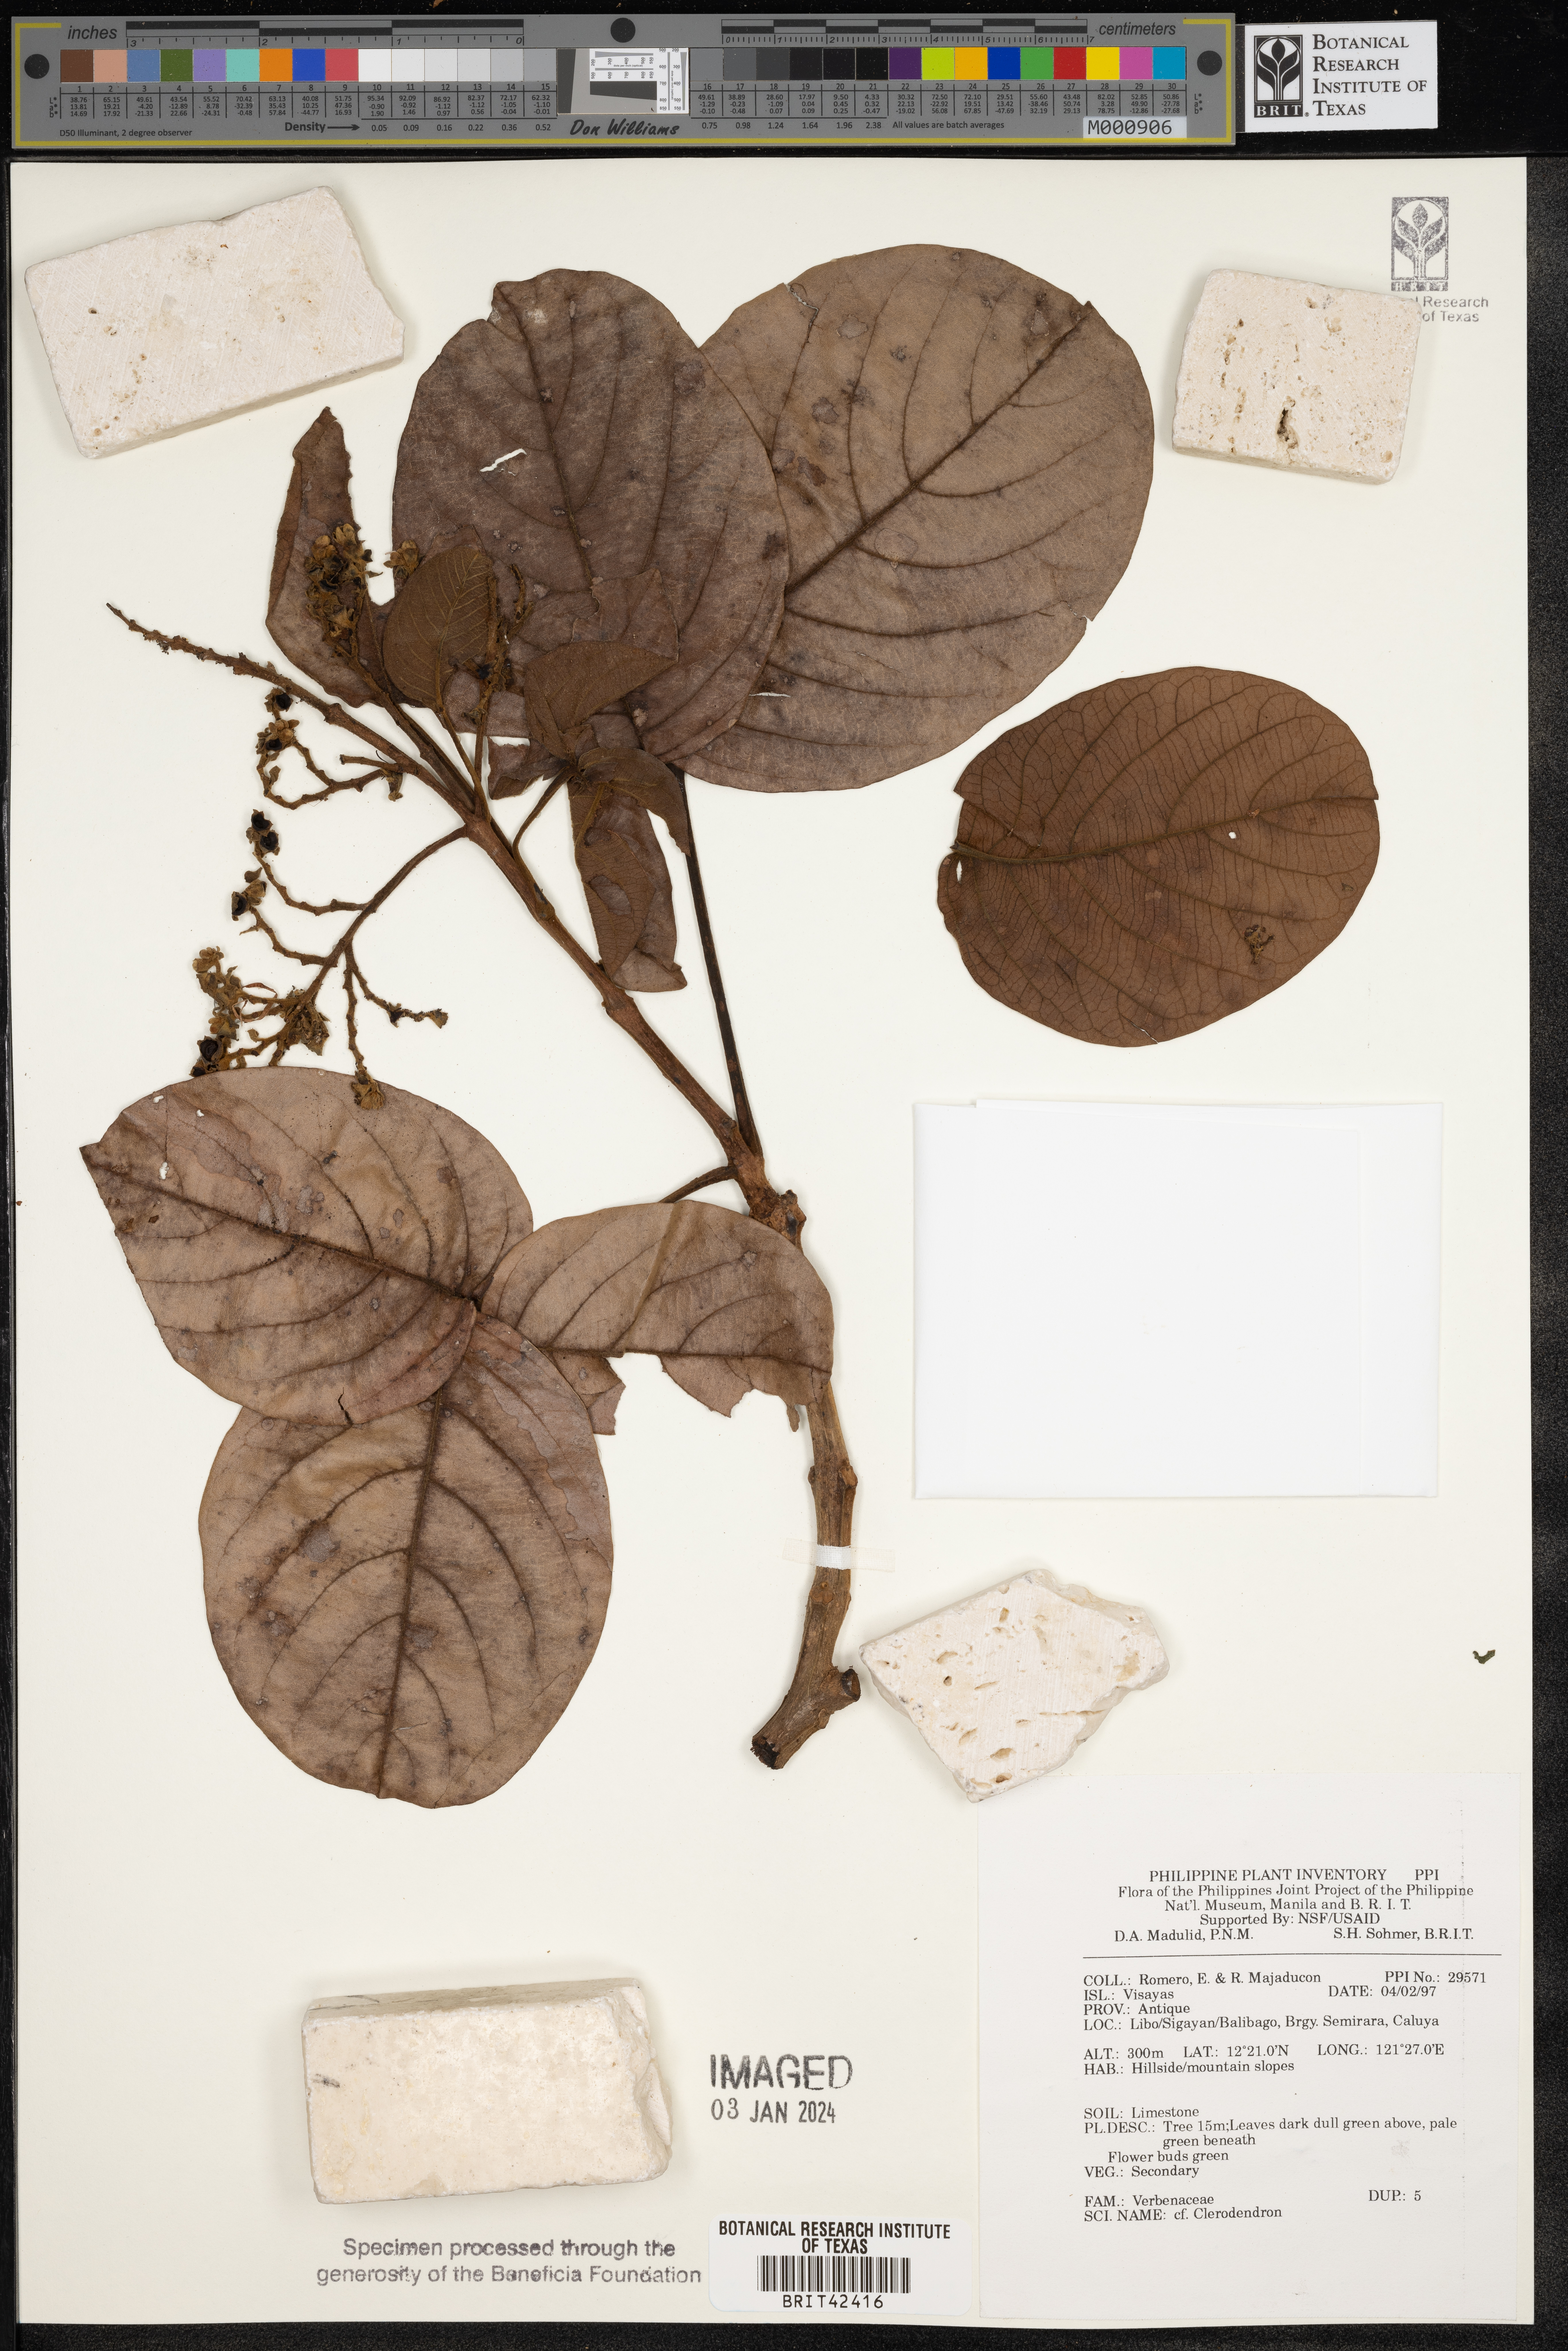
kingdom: Plantae
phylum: Tracheophyta
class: Magnoliopsida
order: Lamiales
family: Lamiaceae
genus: Clerodendrum
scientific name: Clerodendrum
